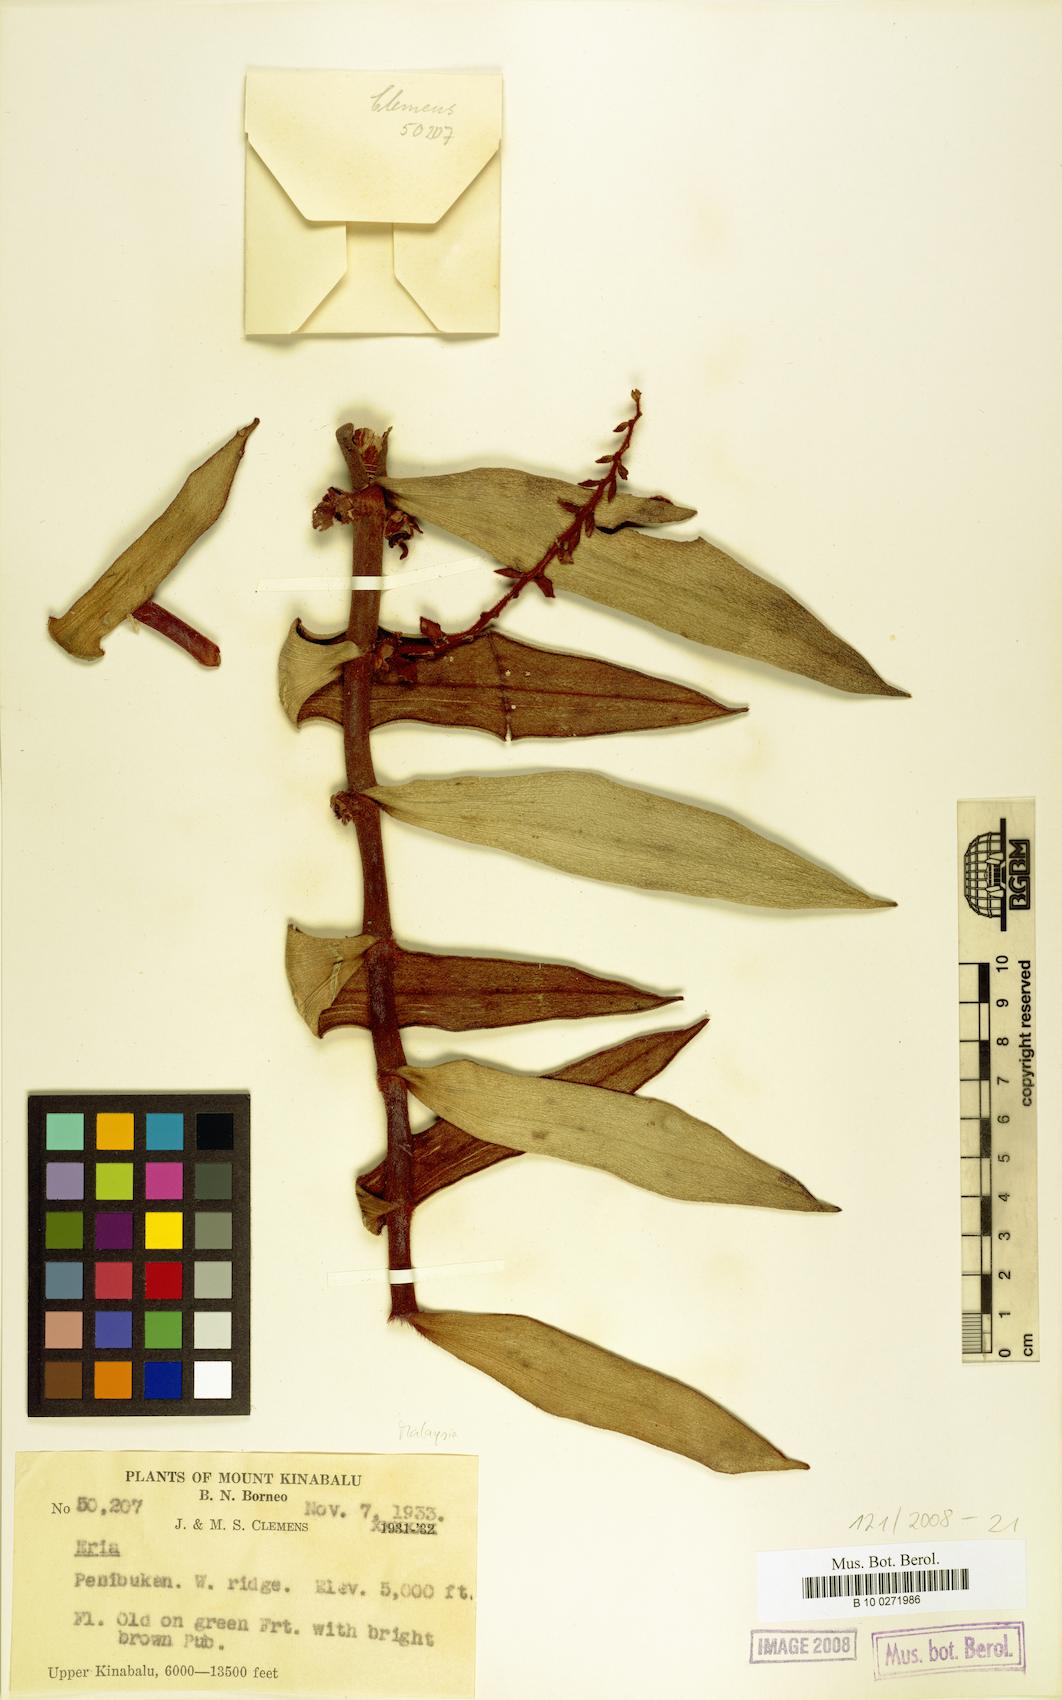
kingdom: Plantae
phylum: Tracheophyta
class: Liliopsida
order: Asparagales
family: Orchidaceae
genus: Eria
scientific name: Eria
